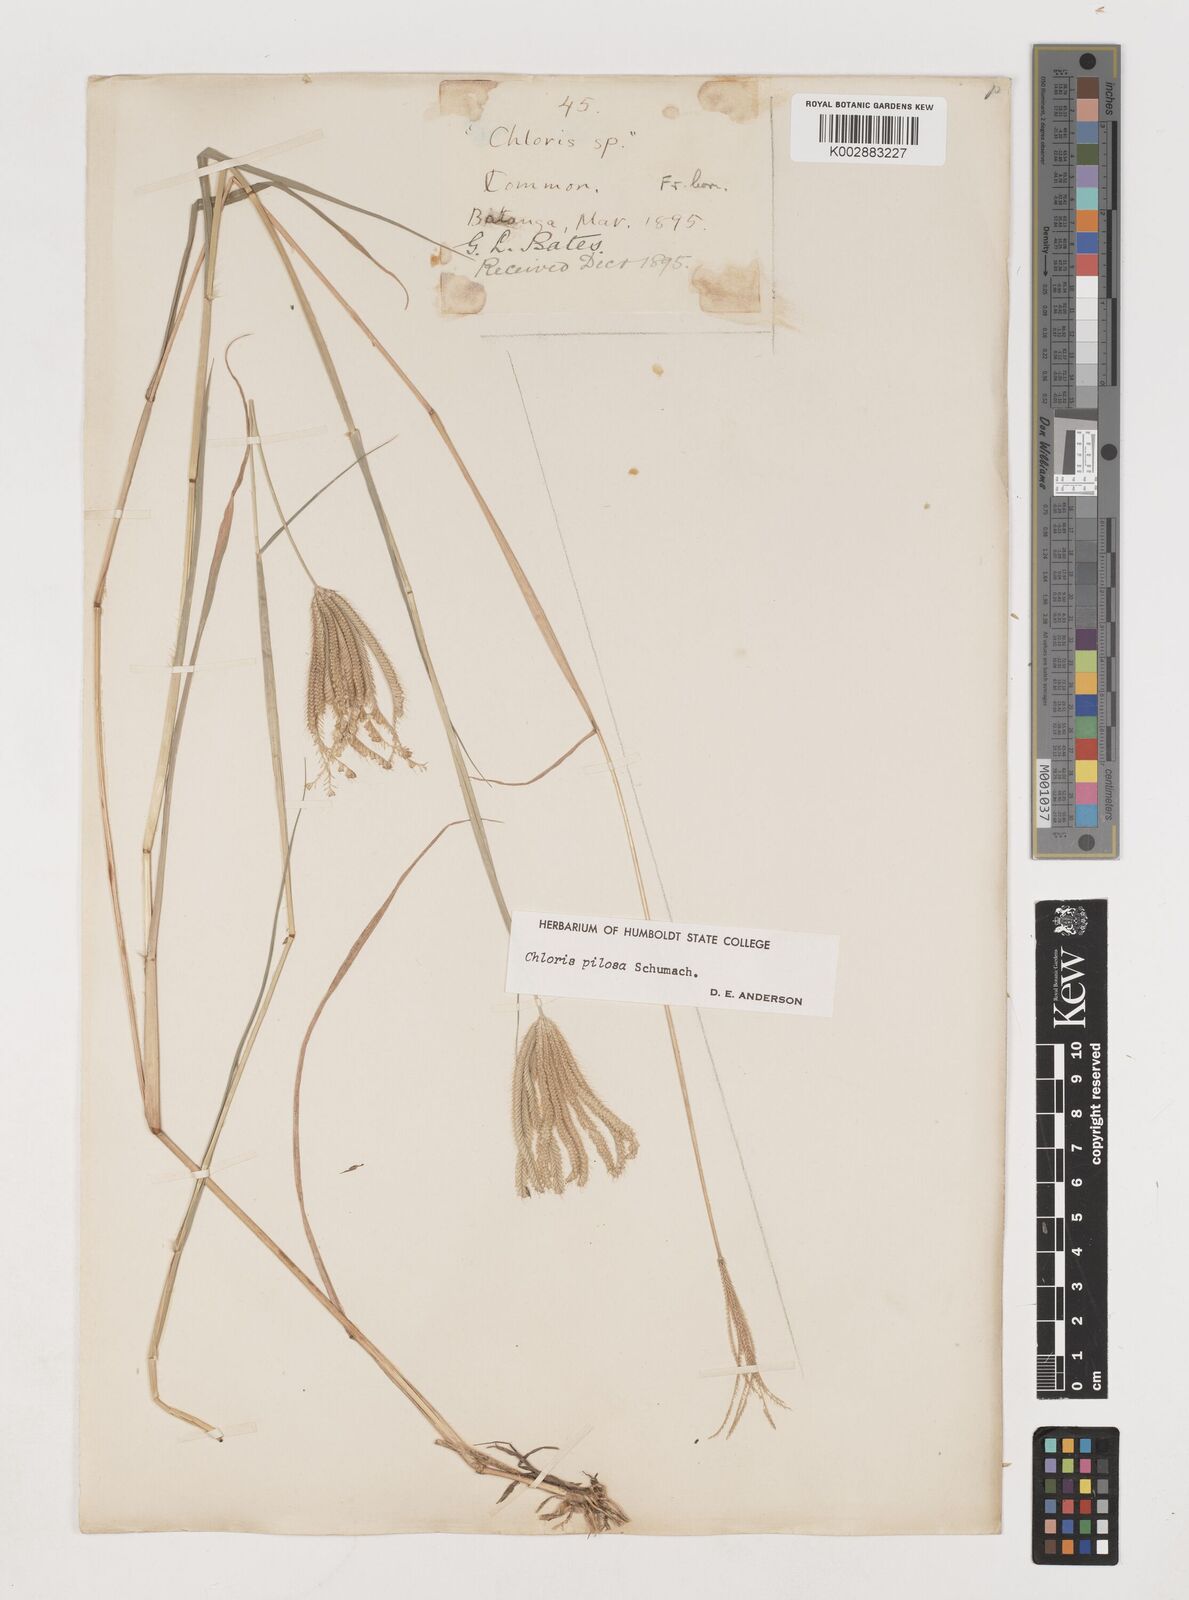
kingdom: Plantae
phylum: Tracheophyta
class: Liliopsida
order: Poales
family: Poaceae
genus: Chloris
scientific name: Chloris pilosa
